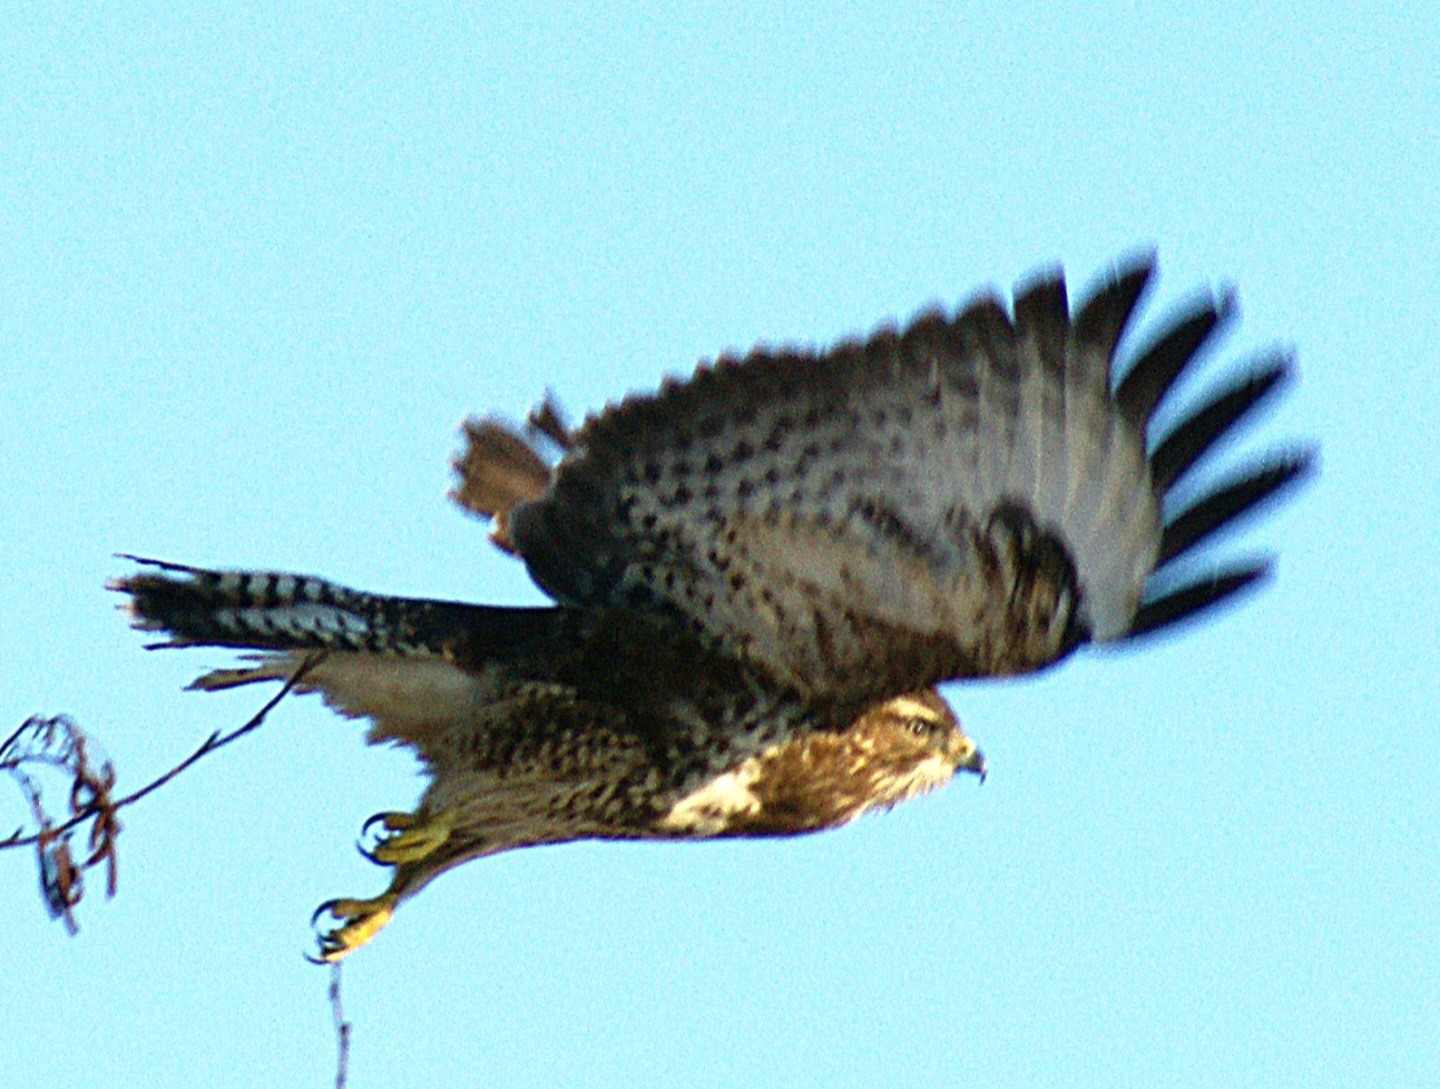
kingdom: Animalia
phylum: Chordata
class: Aves
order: Accipitriformes
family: Accipitridae
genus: Buteo
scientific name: Buteo buteo
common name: Musvåge
